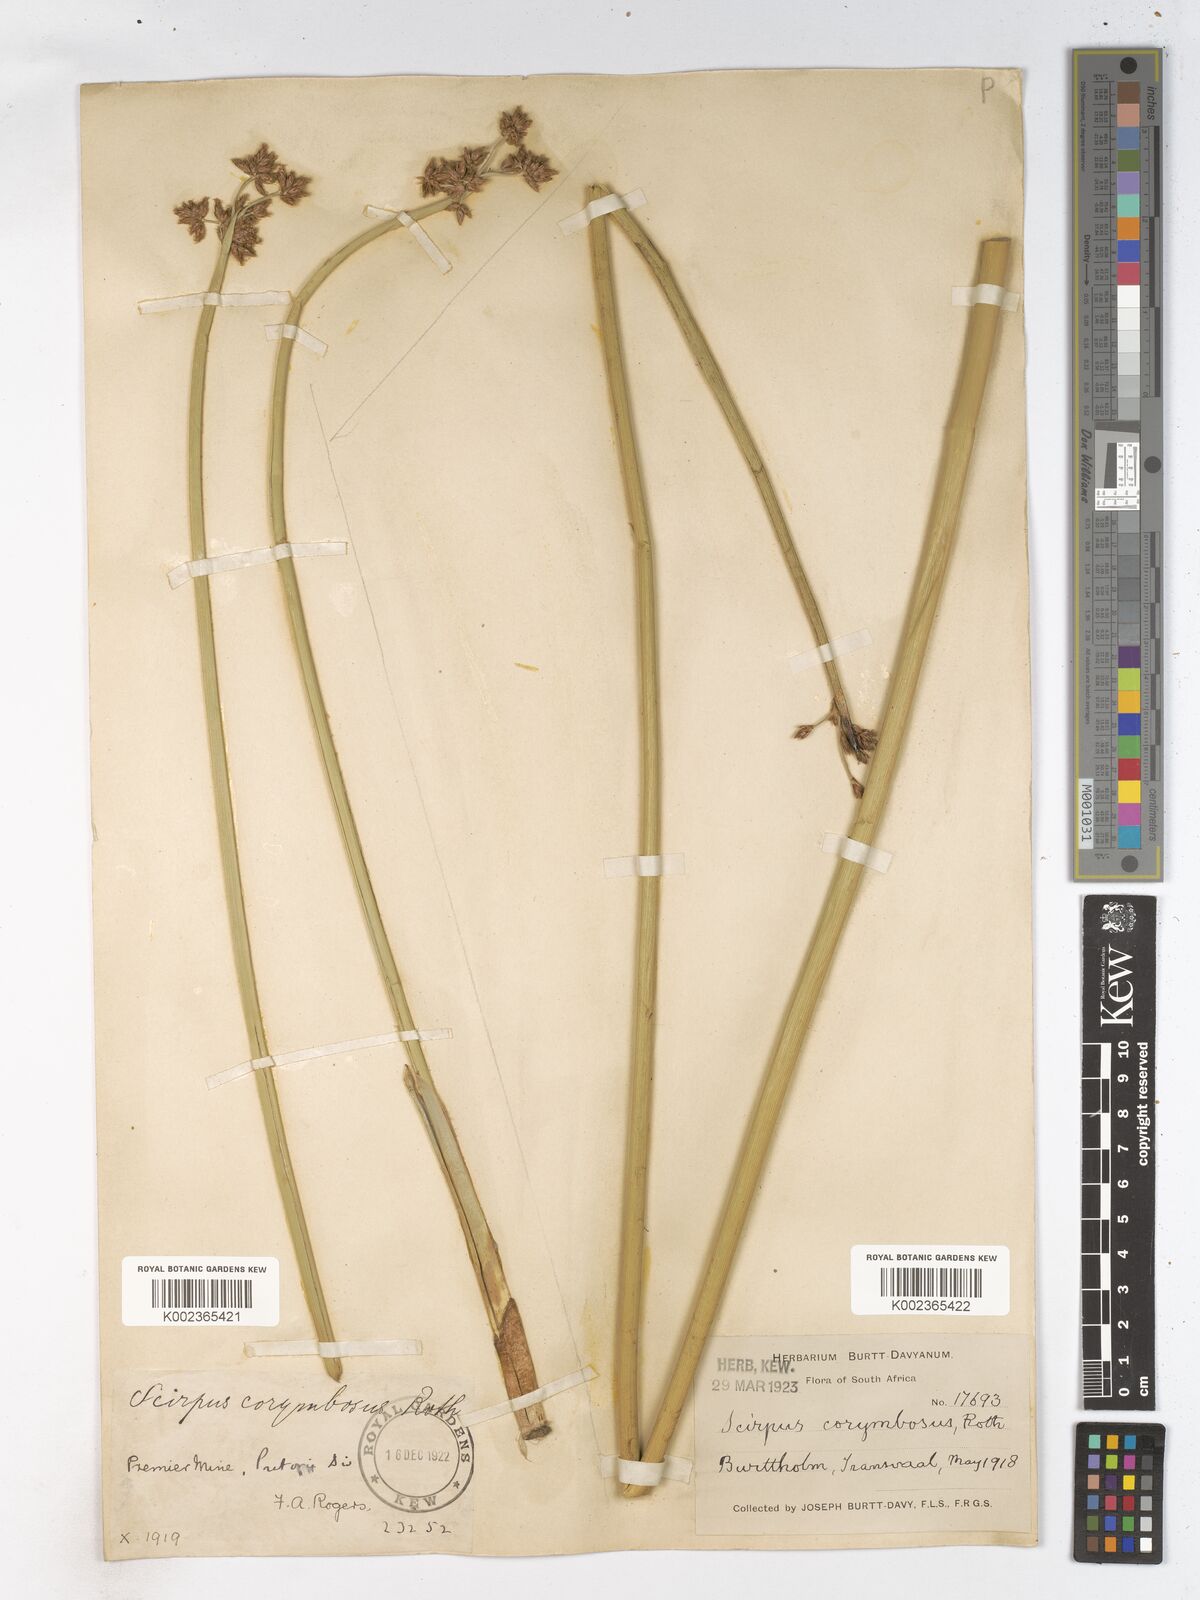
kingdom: Plantae
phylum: Tracheophyta
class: Liliopsida
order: Poales
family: Cyperaceae
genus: Schoenoplectiella
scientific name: Schoenoplectiella brachyceras
